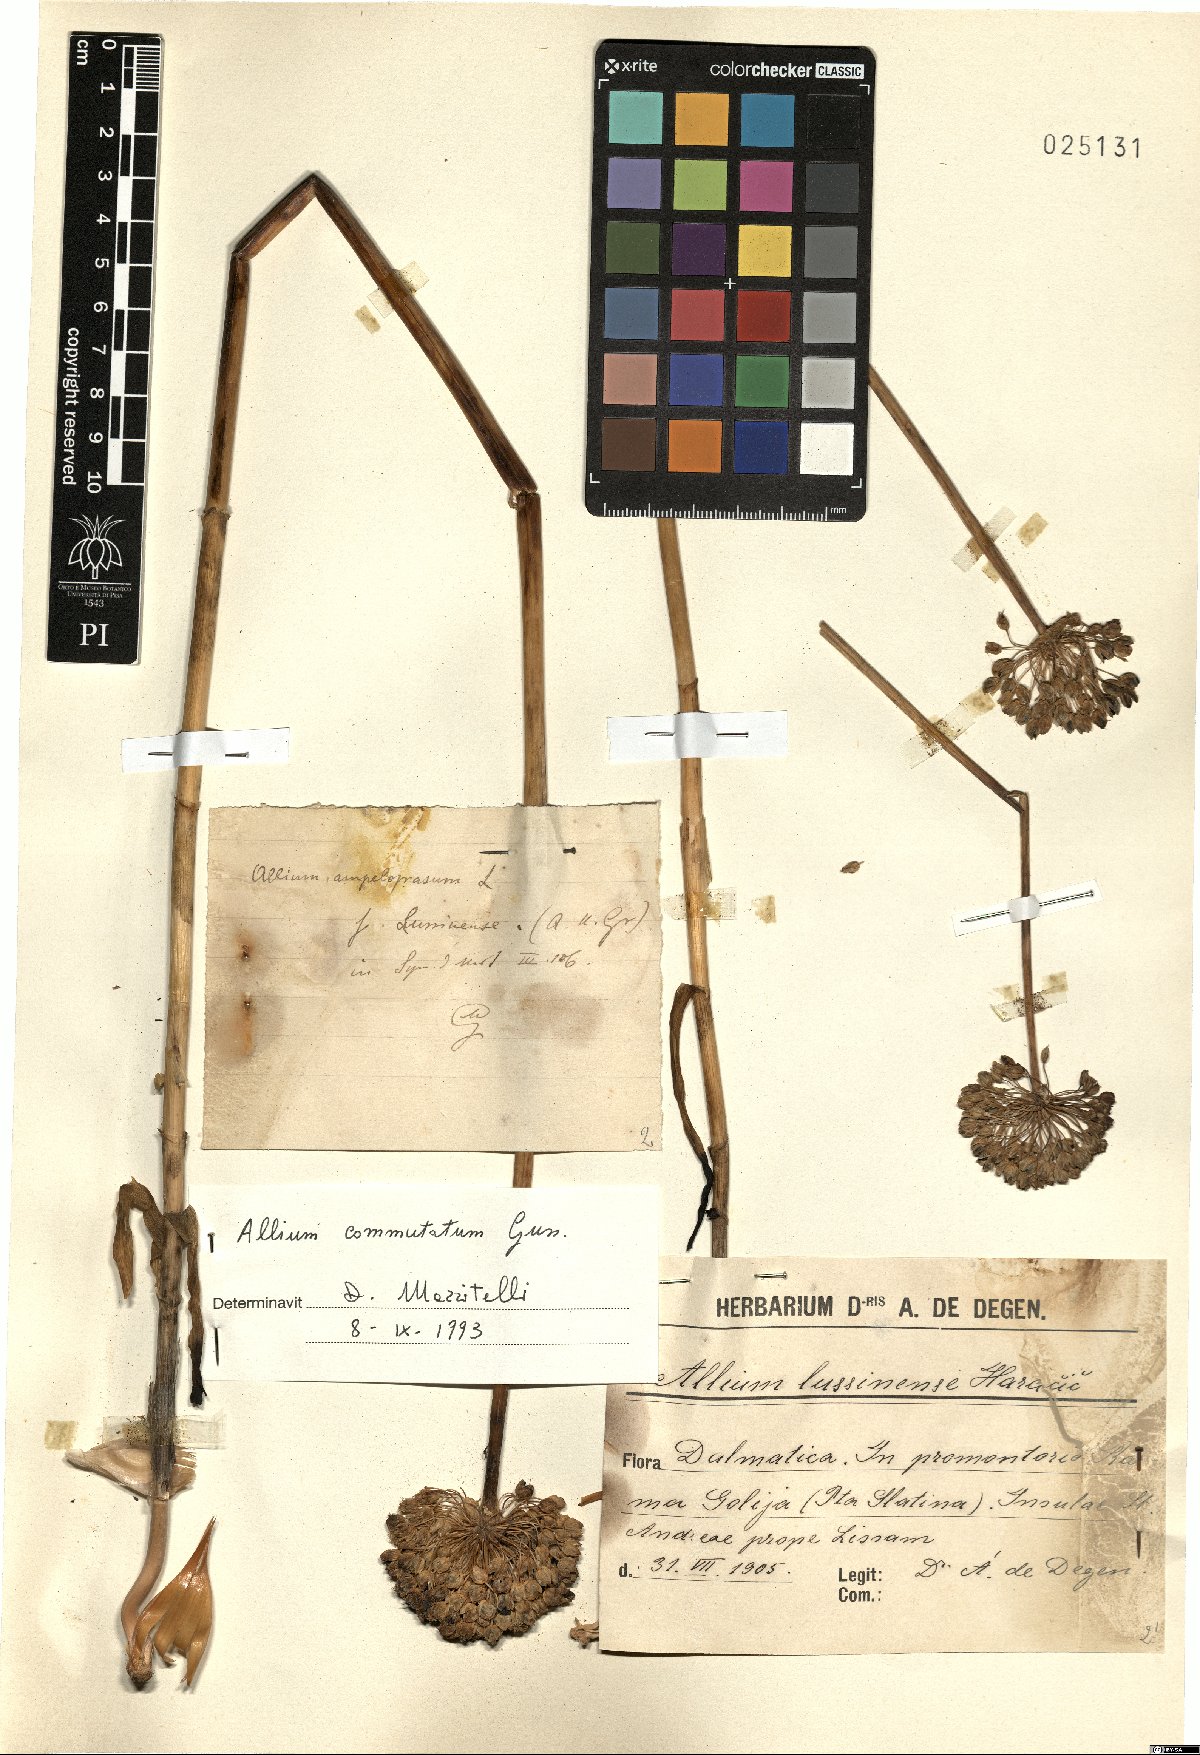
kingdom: Plantae
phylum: Tracheophyta
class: Liliopsida
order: Asparagales
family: Amaryllidaceae
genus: Allium
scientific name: Allium commutatum
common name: Sea garlic
